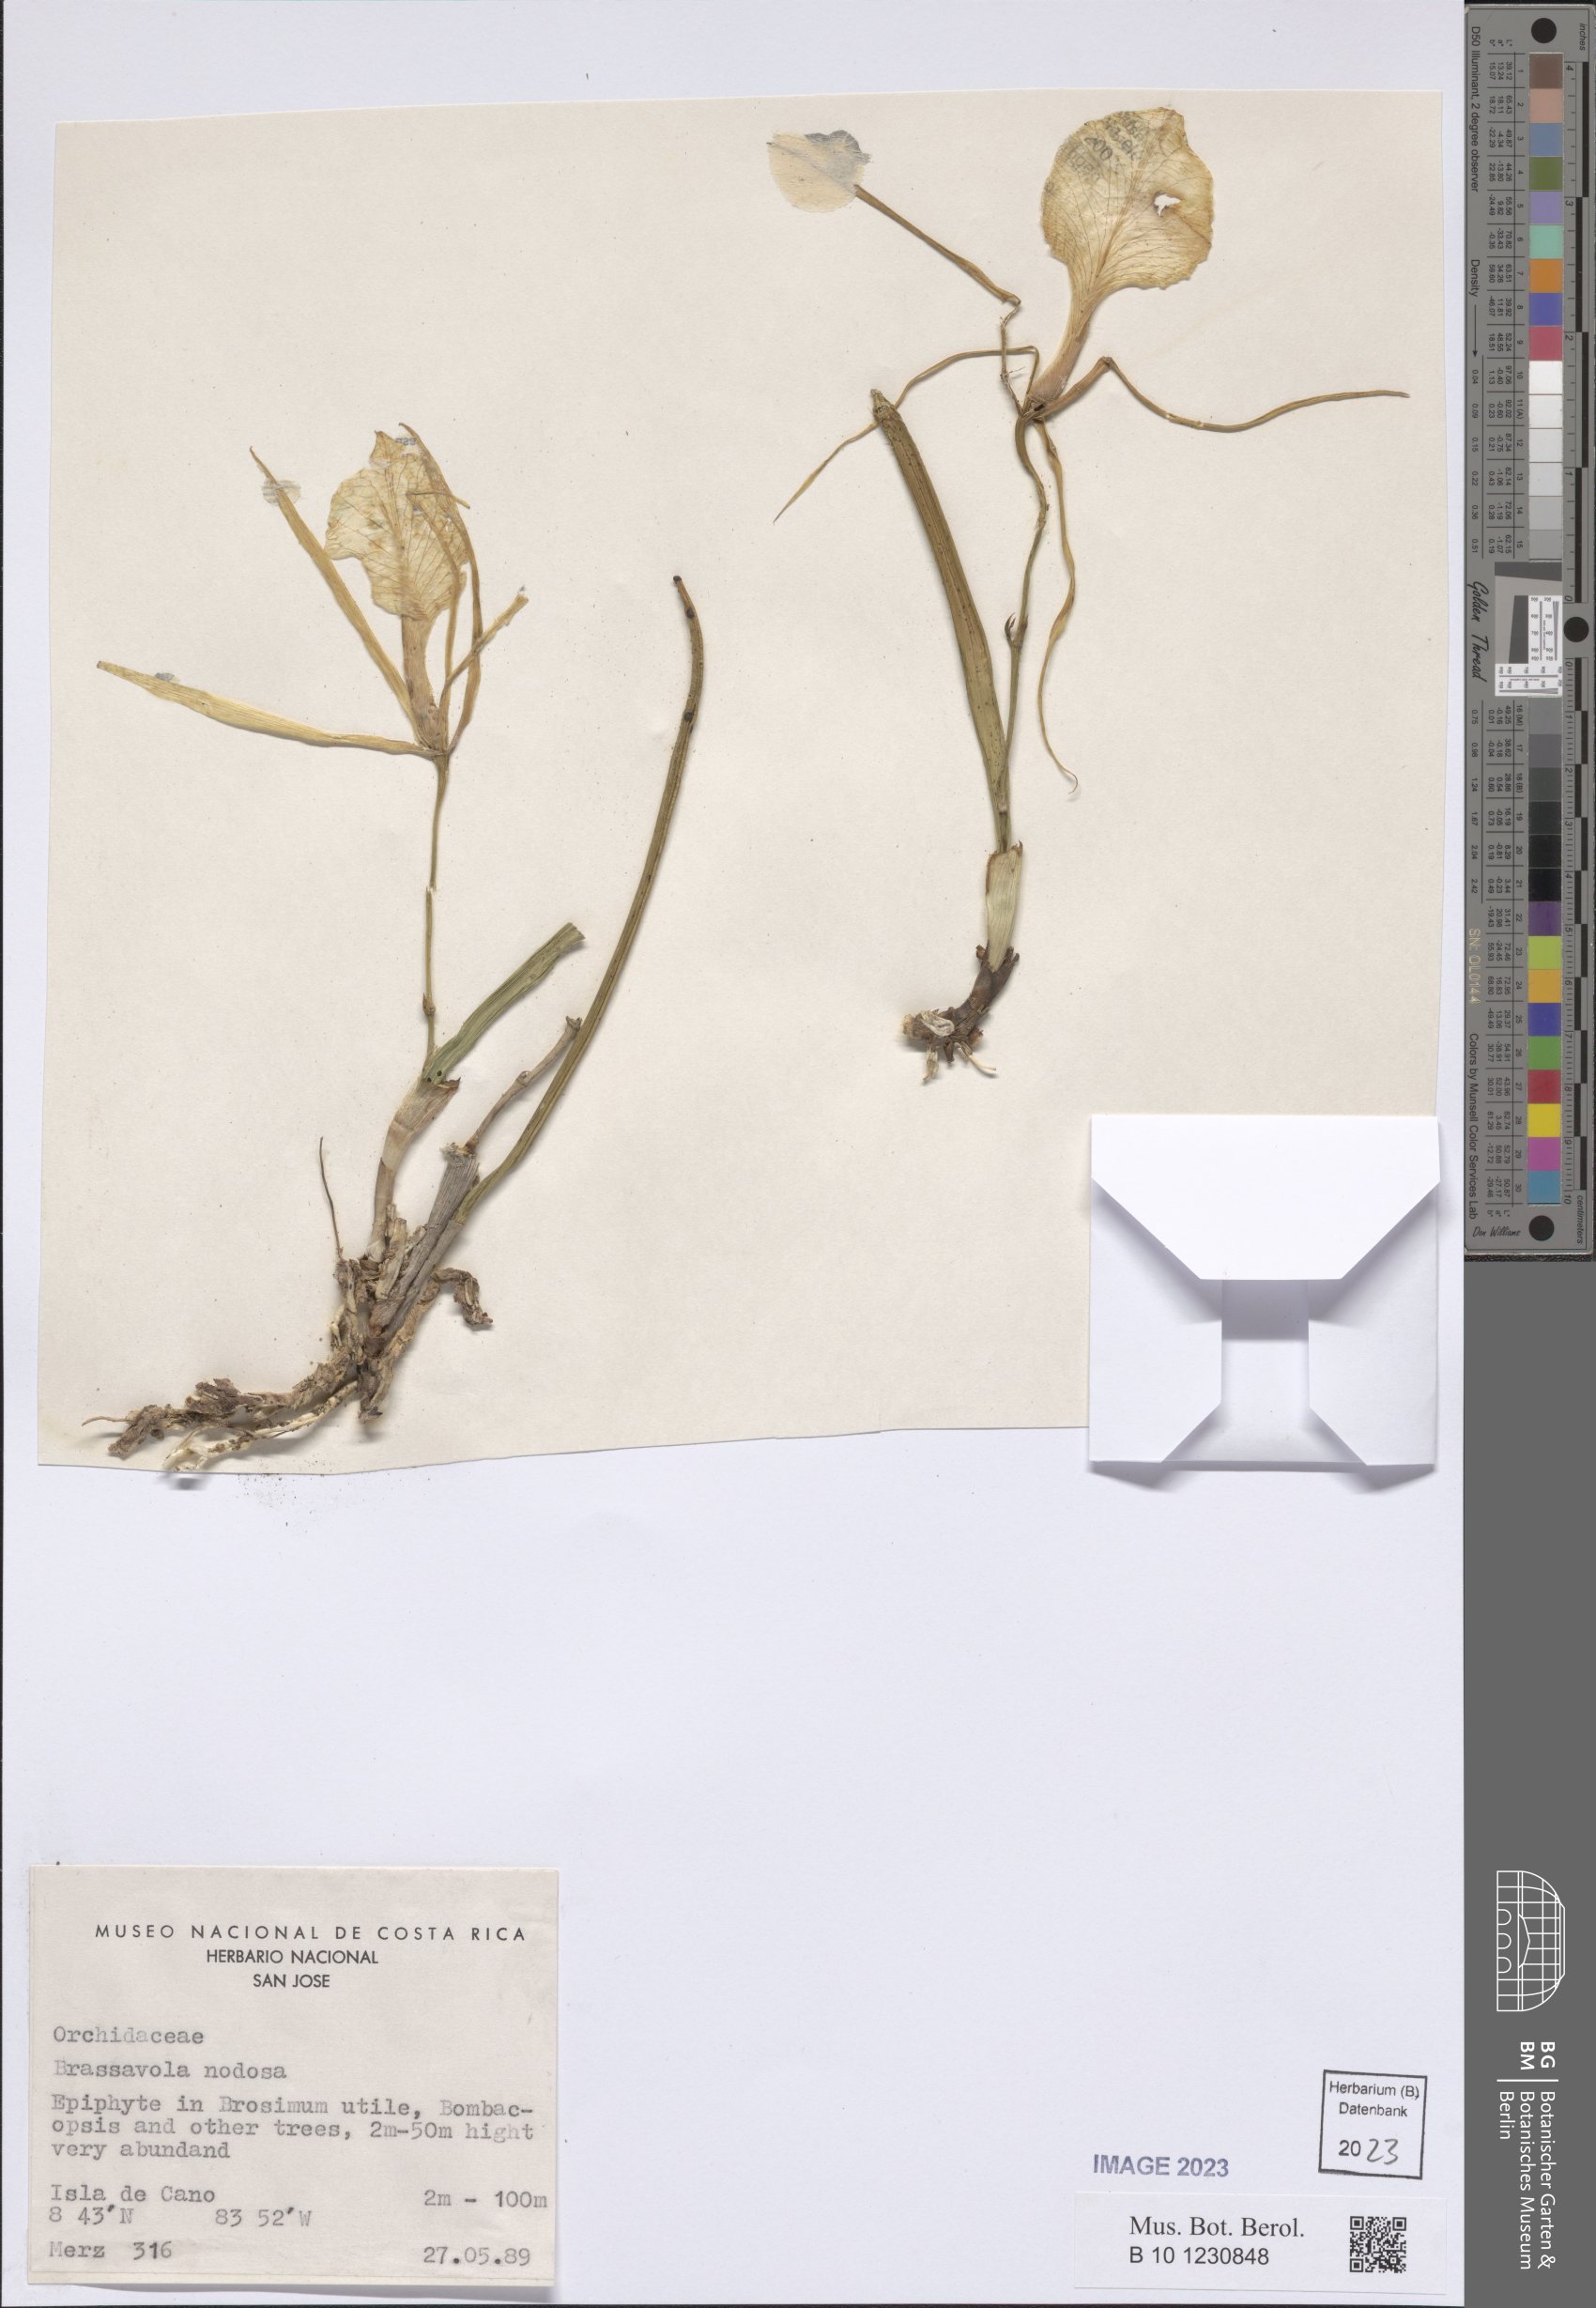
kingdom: Plantae
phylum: Tracheophyta
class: Liliopsida
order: Asparagales
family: Orchidaceae
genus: Brassavola
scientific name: Brassavola nodosa
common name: Lady of the night
